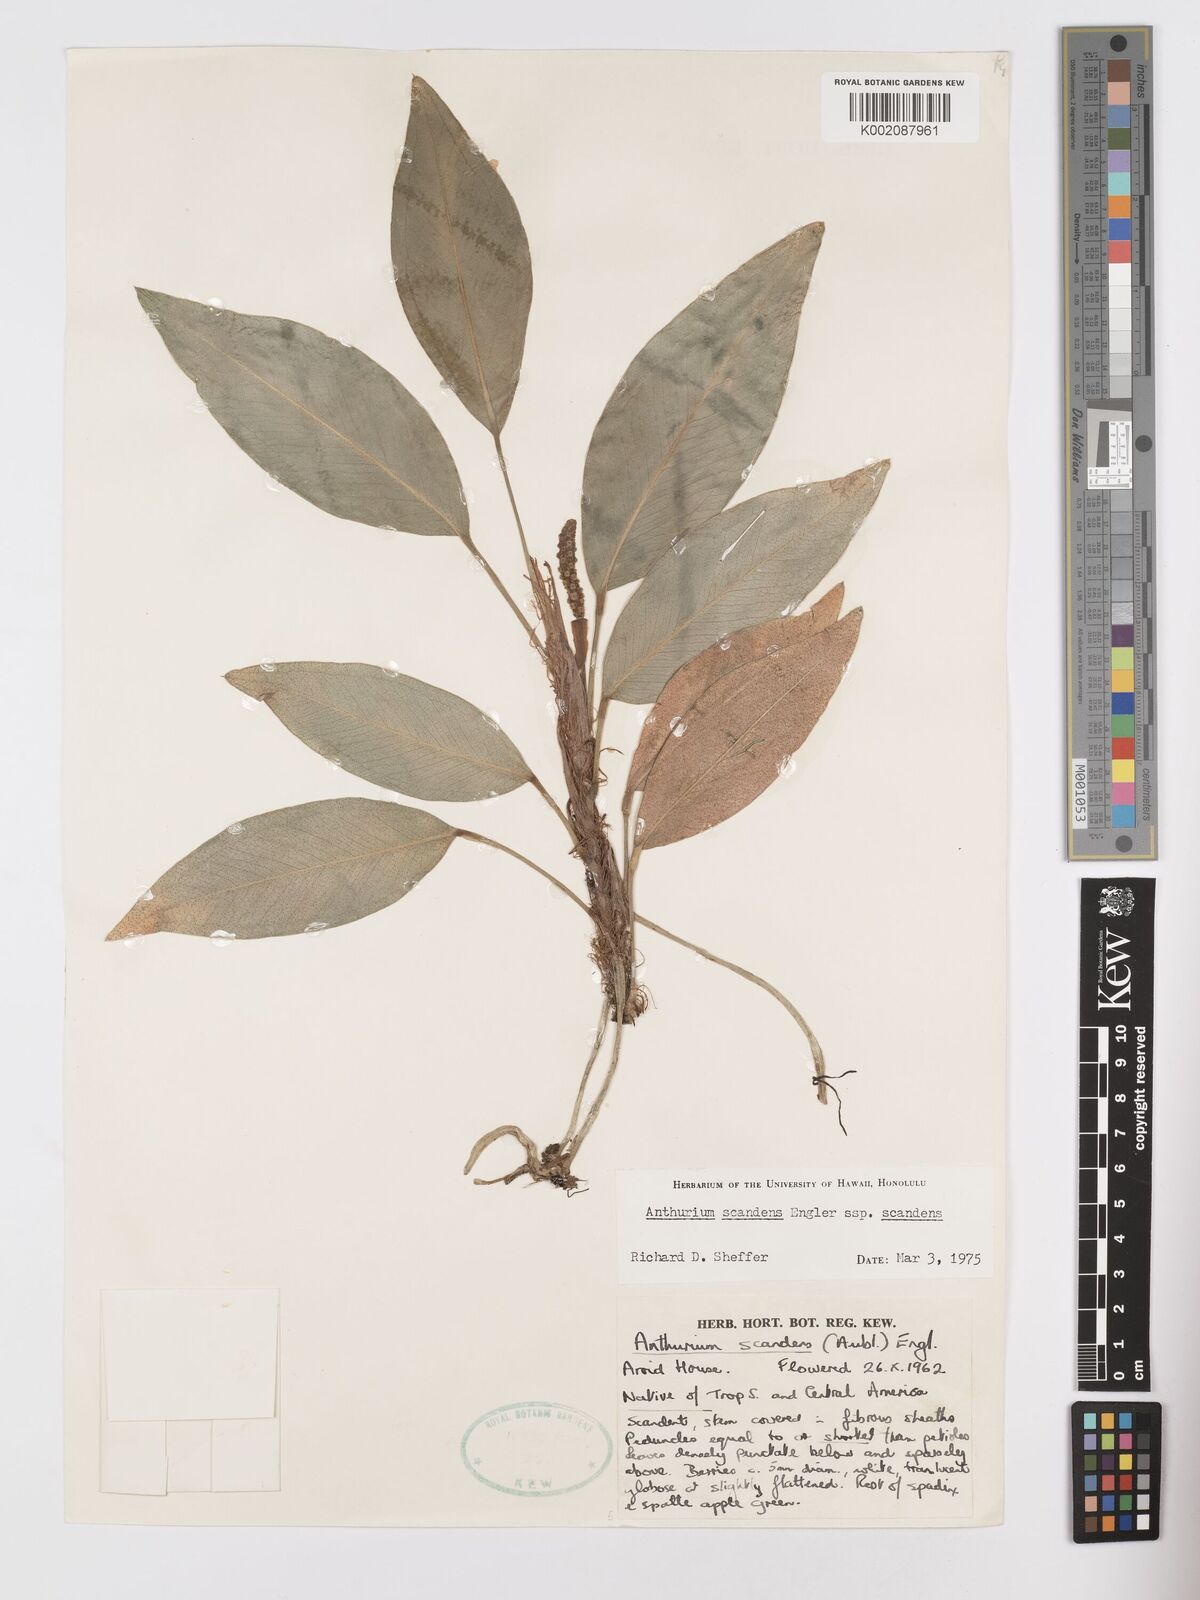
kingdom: Plantae
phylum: Tracheophyta
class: Liliopsida
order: Alismatales
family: Araceae
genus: Anthurium
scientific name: Anthurium scandens
